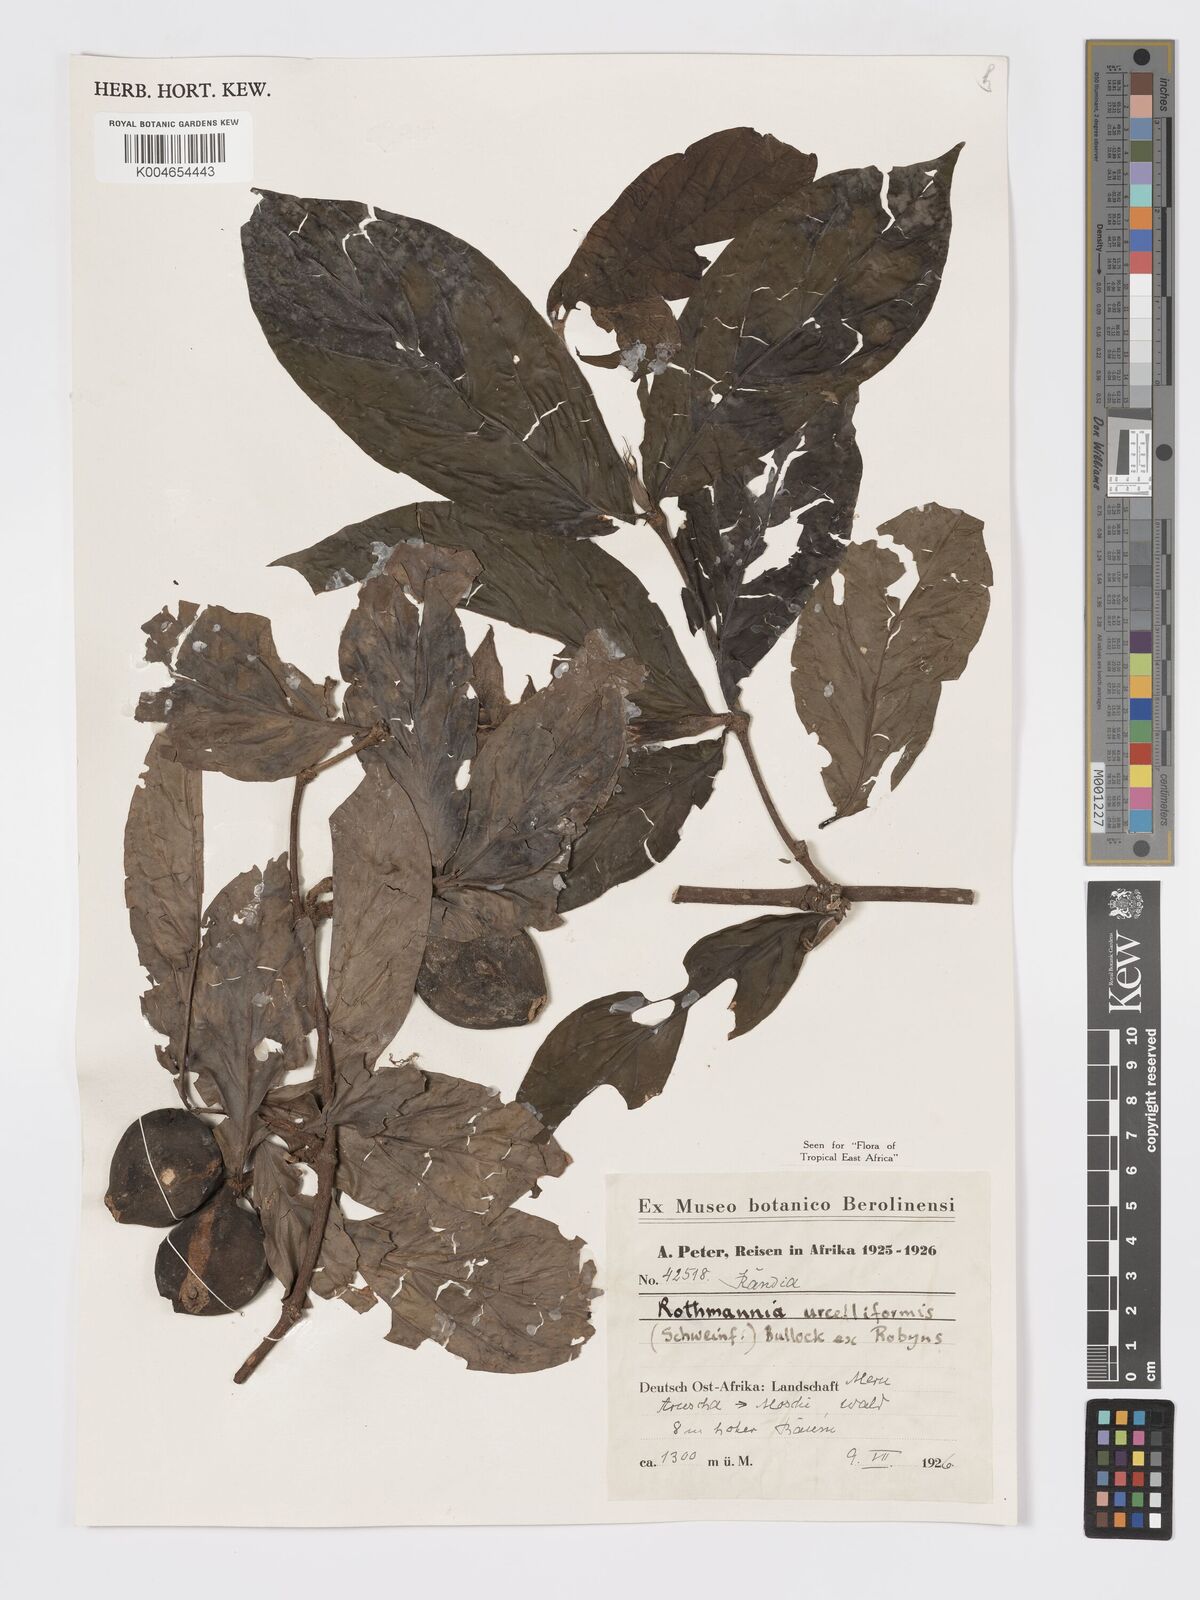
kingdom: Plantae
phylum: Tracheophyta
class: Magnoliopsida
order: Gentianales
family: Rubiaceae
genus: Rothmannia
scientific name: Rothmannia urcelliformis
